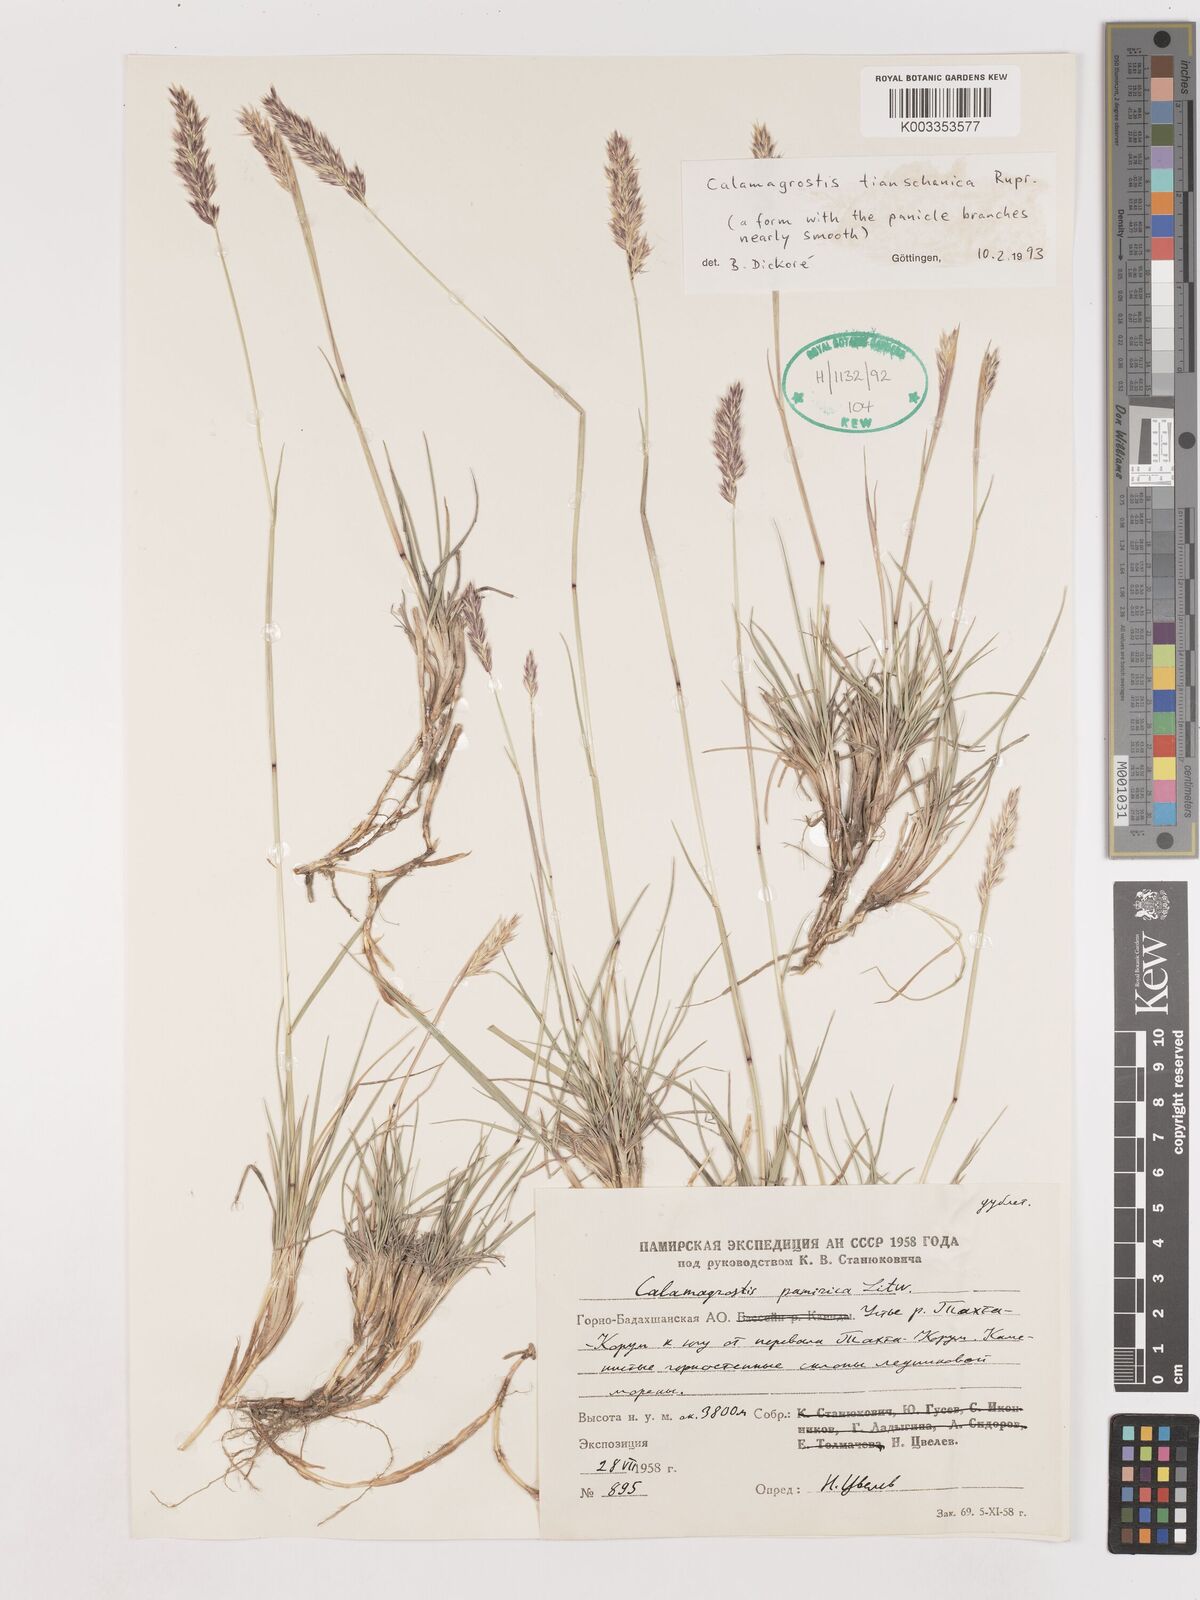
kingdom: Plantae
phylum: Tracheophyta
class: Liliopsida
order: Poales
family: Poaceae
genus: Calamagrostis
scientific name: Calamagrostis tianschanica
